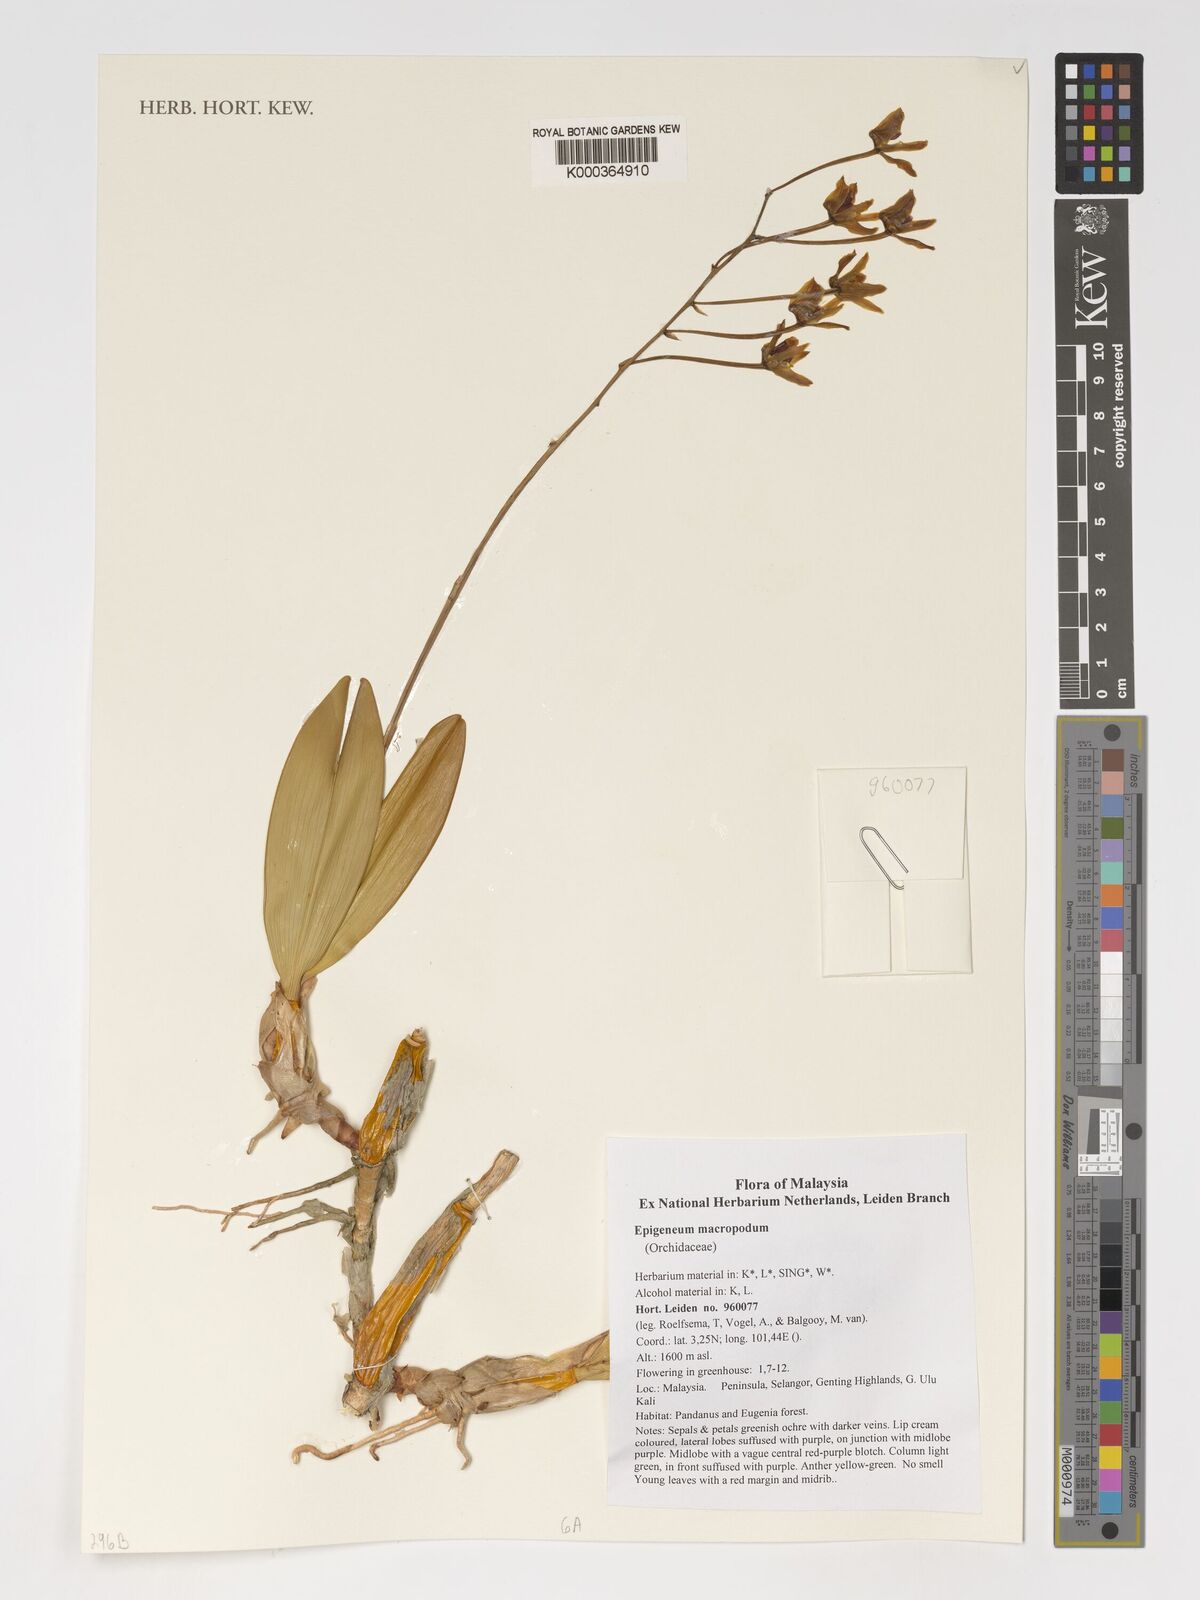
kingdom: Plantae
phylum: Tracheophyta
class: Liliopsida
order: Asparagales
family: Orchidaceae
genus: Dendrobium
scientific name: Dendrobium macropodum
